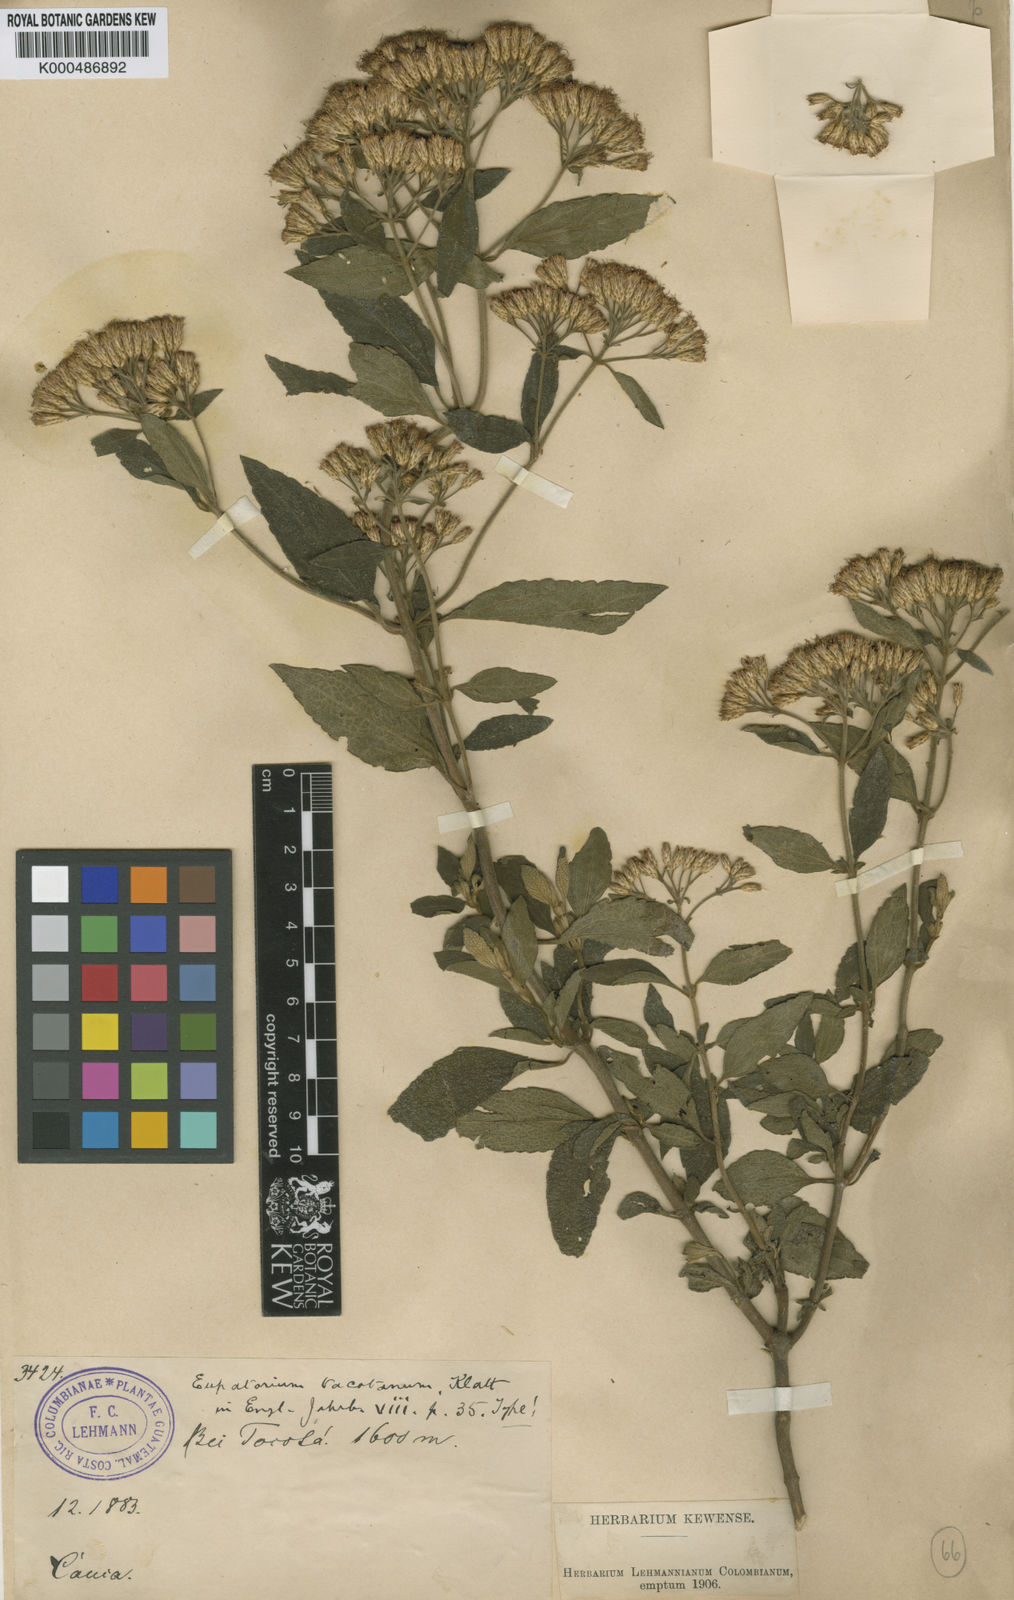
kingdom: Plantae
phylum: Tracheophyta
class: Magnoliopsida
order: Asterales
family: Asteraceae
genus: Chromolaena
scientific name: Chromolaena tacotana
